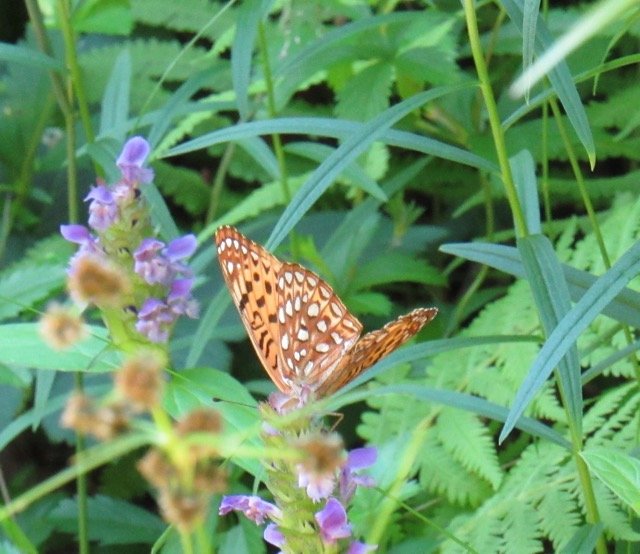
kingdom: Animalia
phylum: Arthropoda
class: Insecta
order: Lepidoptera
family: Nymphalidae
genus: Speyeria
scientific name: Speyeria atlantis
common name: Atlantis Fritillary
